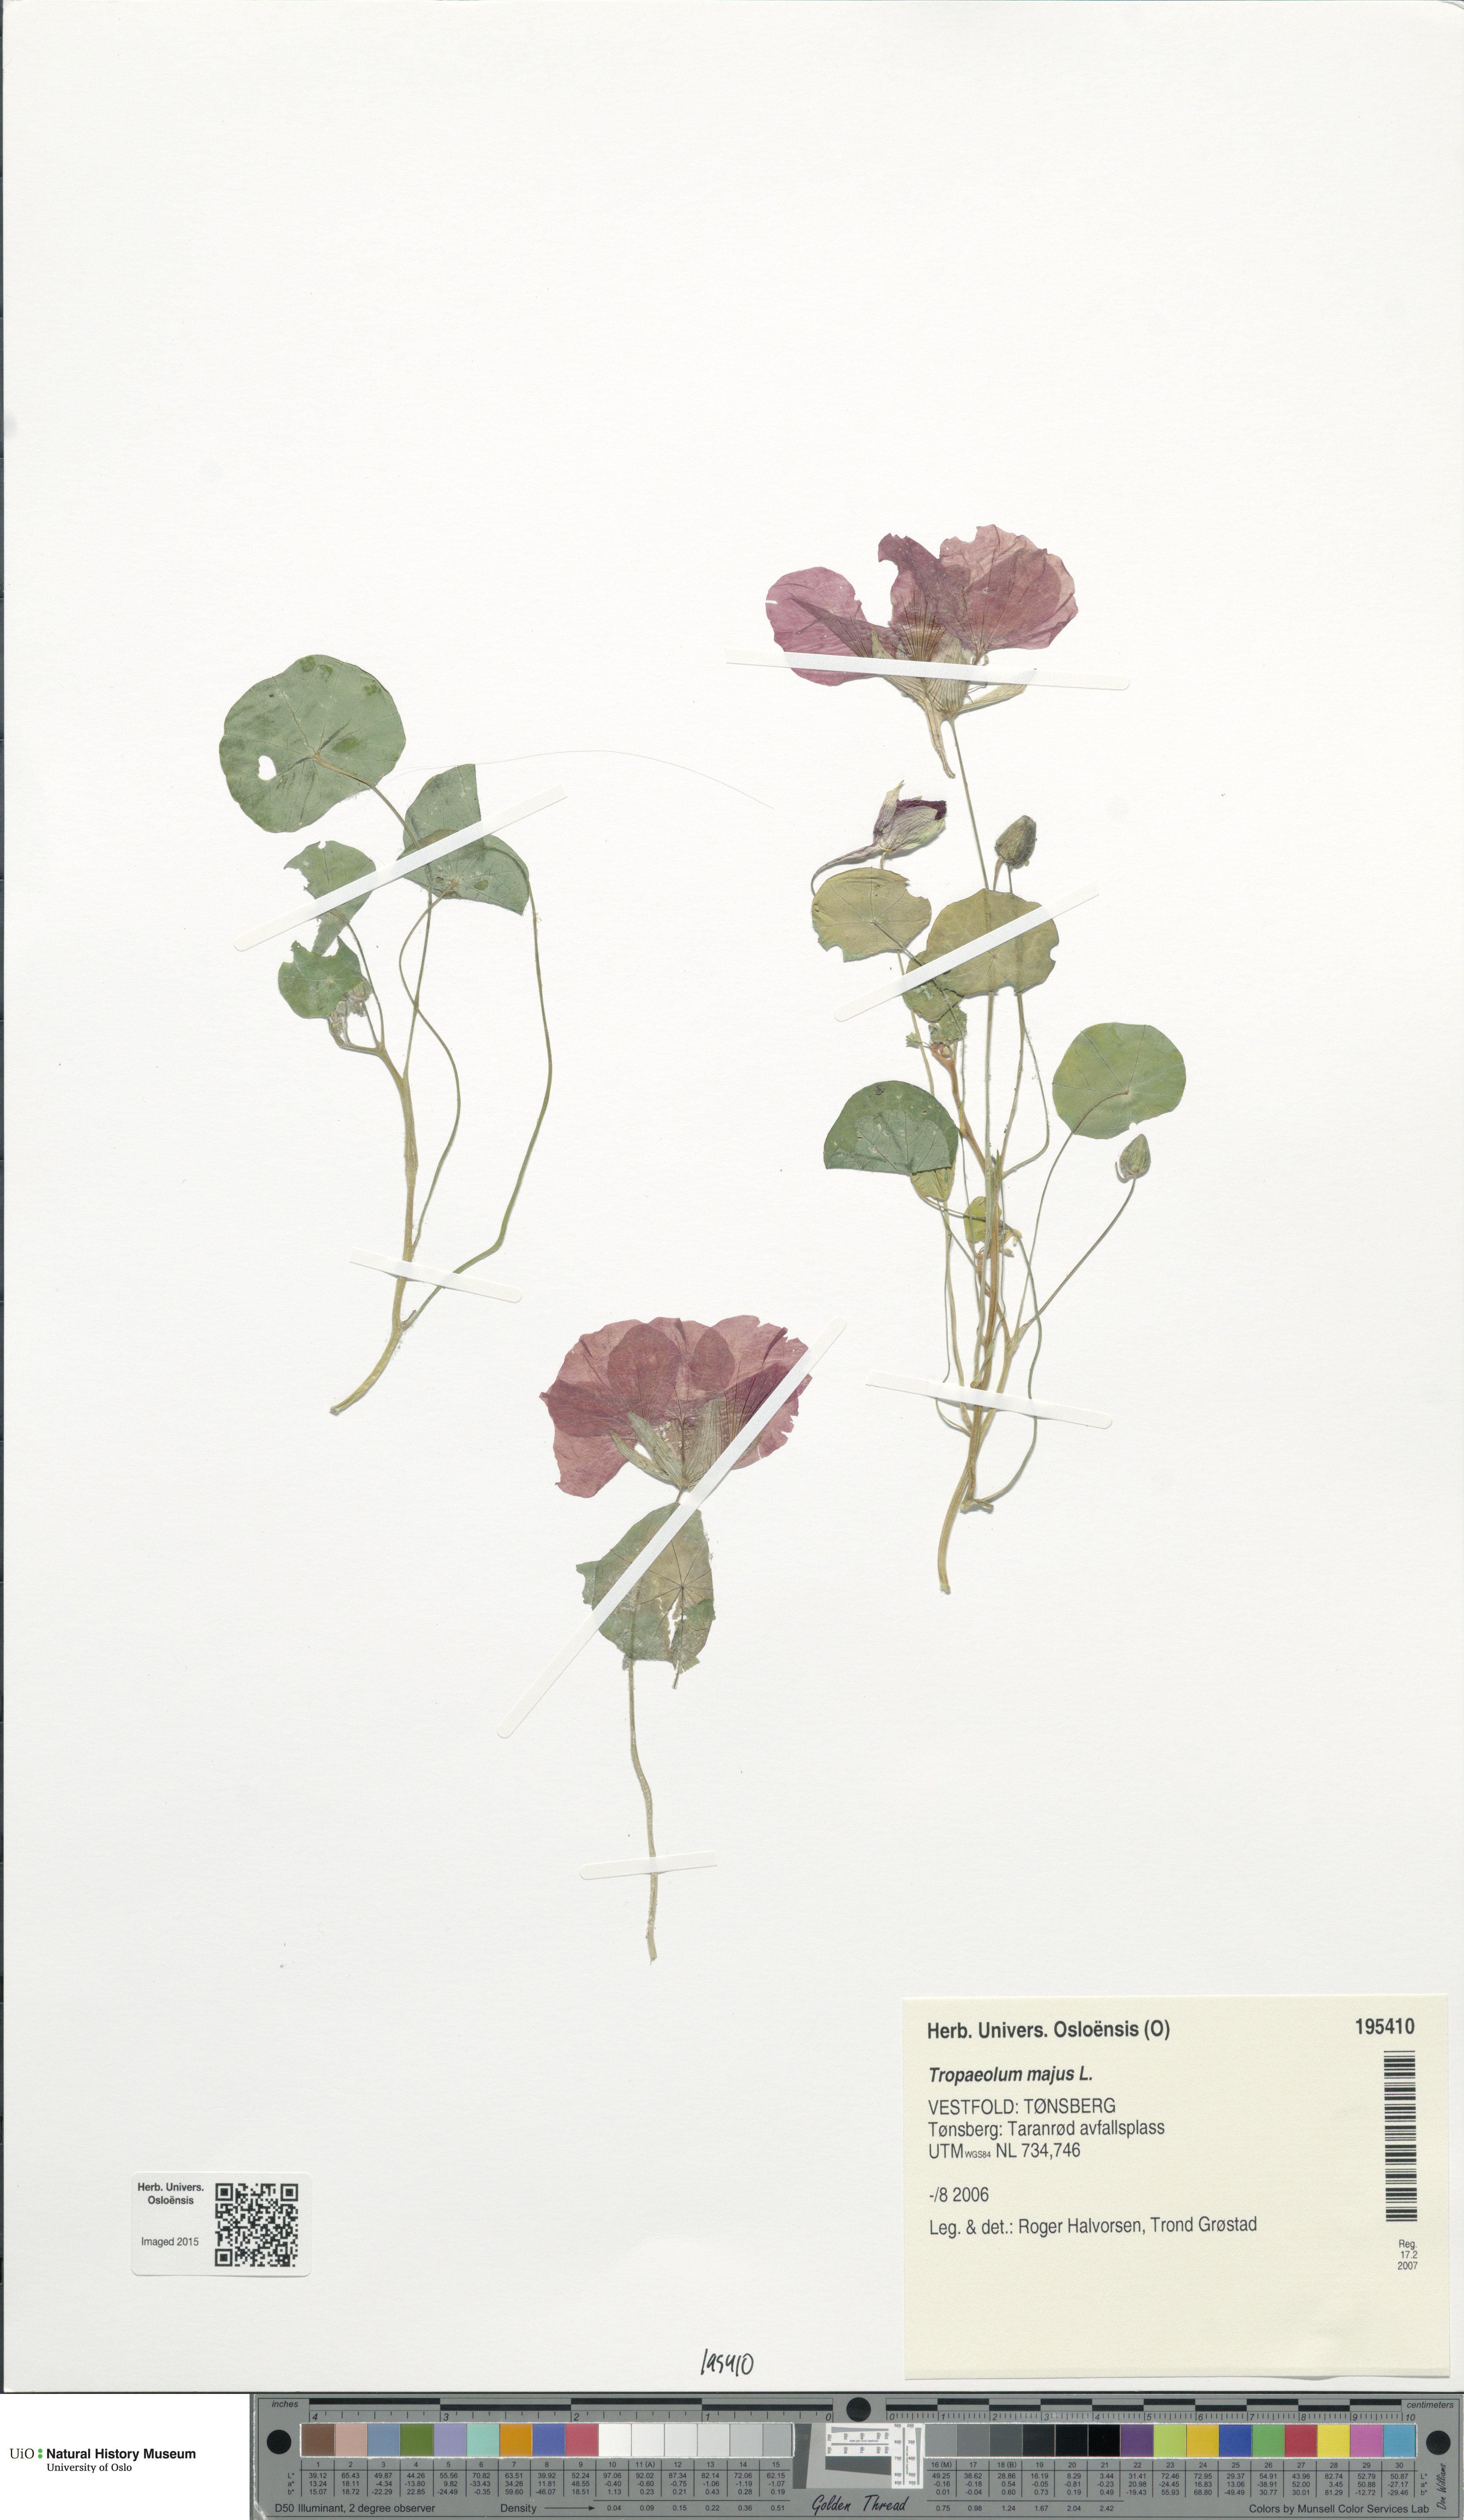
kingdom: Plantae
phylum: Tracheophyta
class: Magnoliopsida
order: Brassicales
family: Tropaeolaceae
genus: Tropaeolum
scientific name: Tropaeolum majus
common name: Nasturtium
